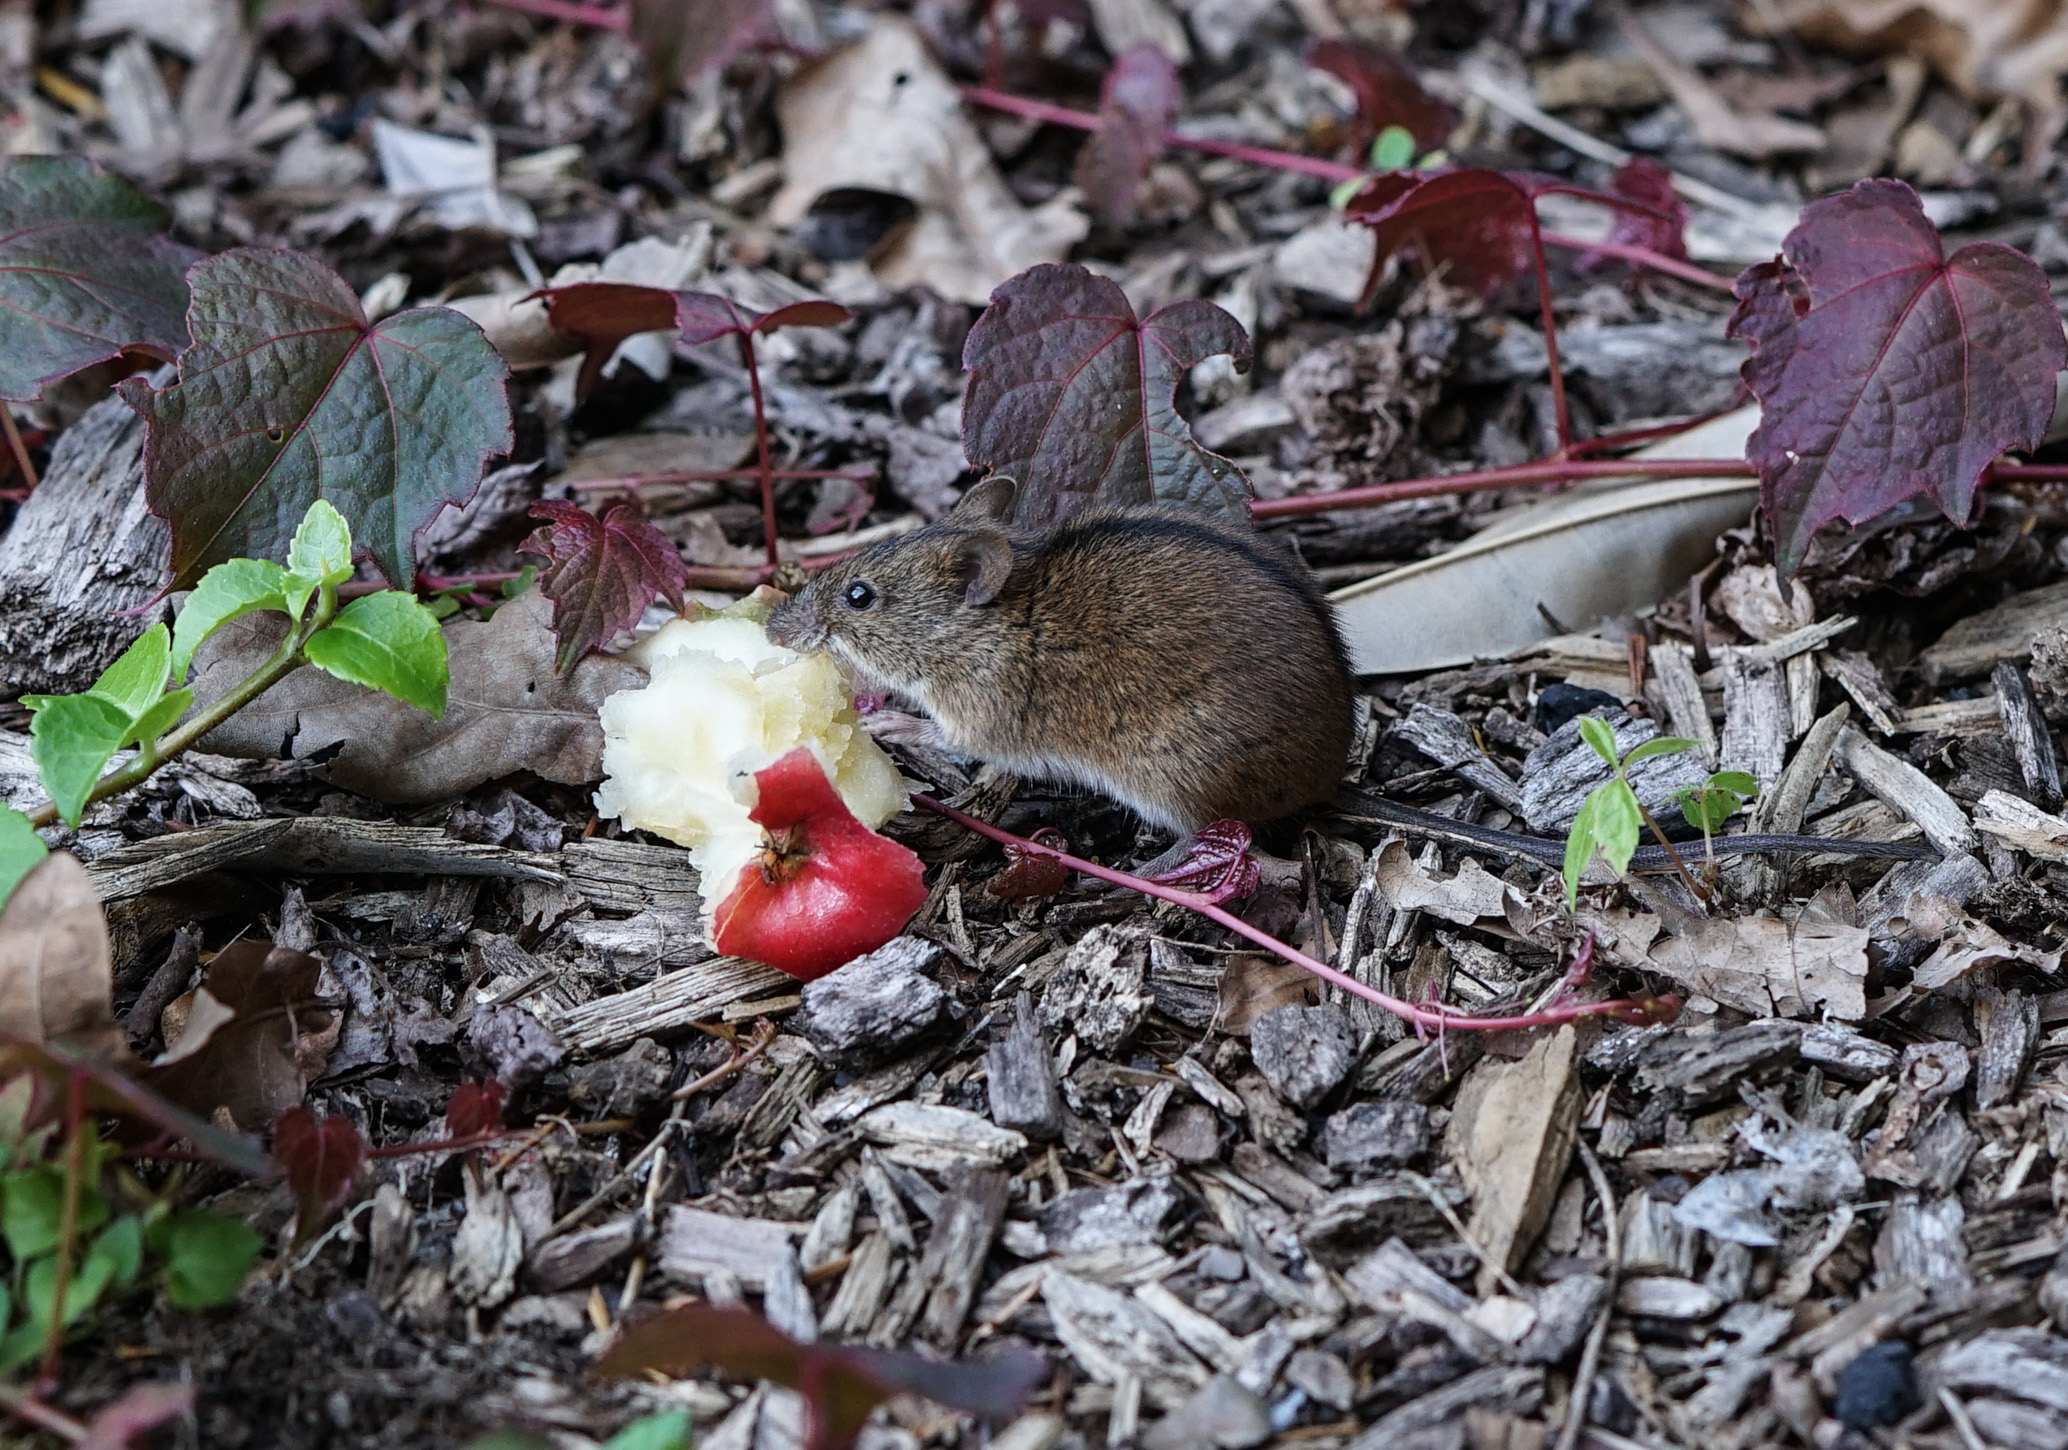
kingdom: Animalia
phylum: Chordata
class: Mammalia
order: Rodentia
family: Muridae
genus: Apodemus
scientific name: Apodemus agrarius
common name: Striped field mouse
